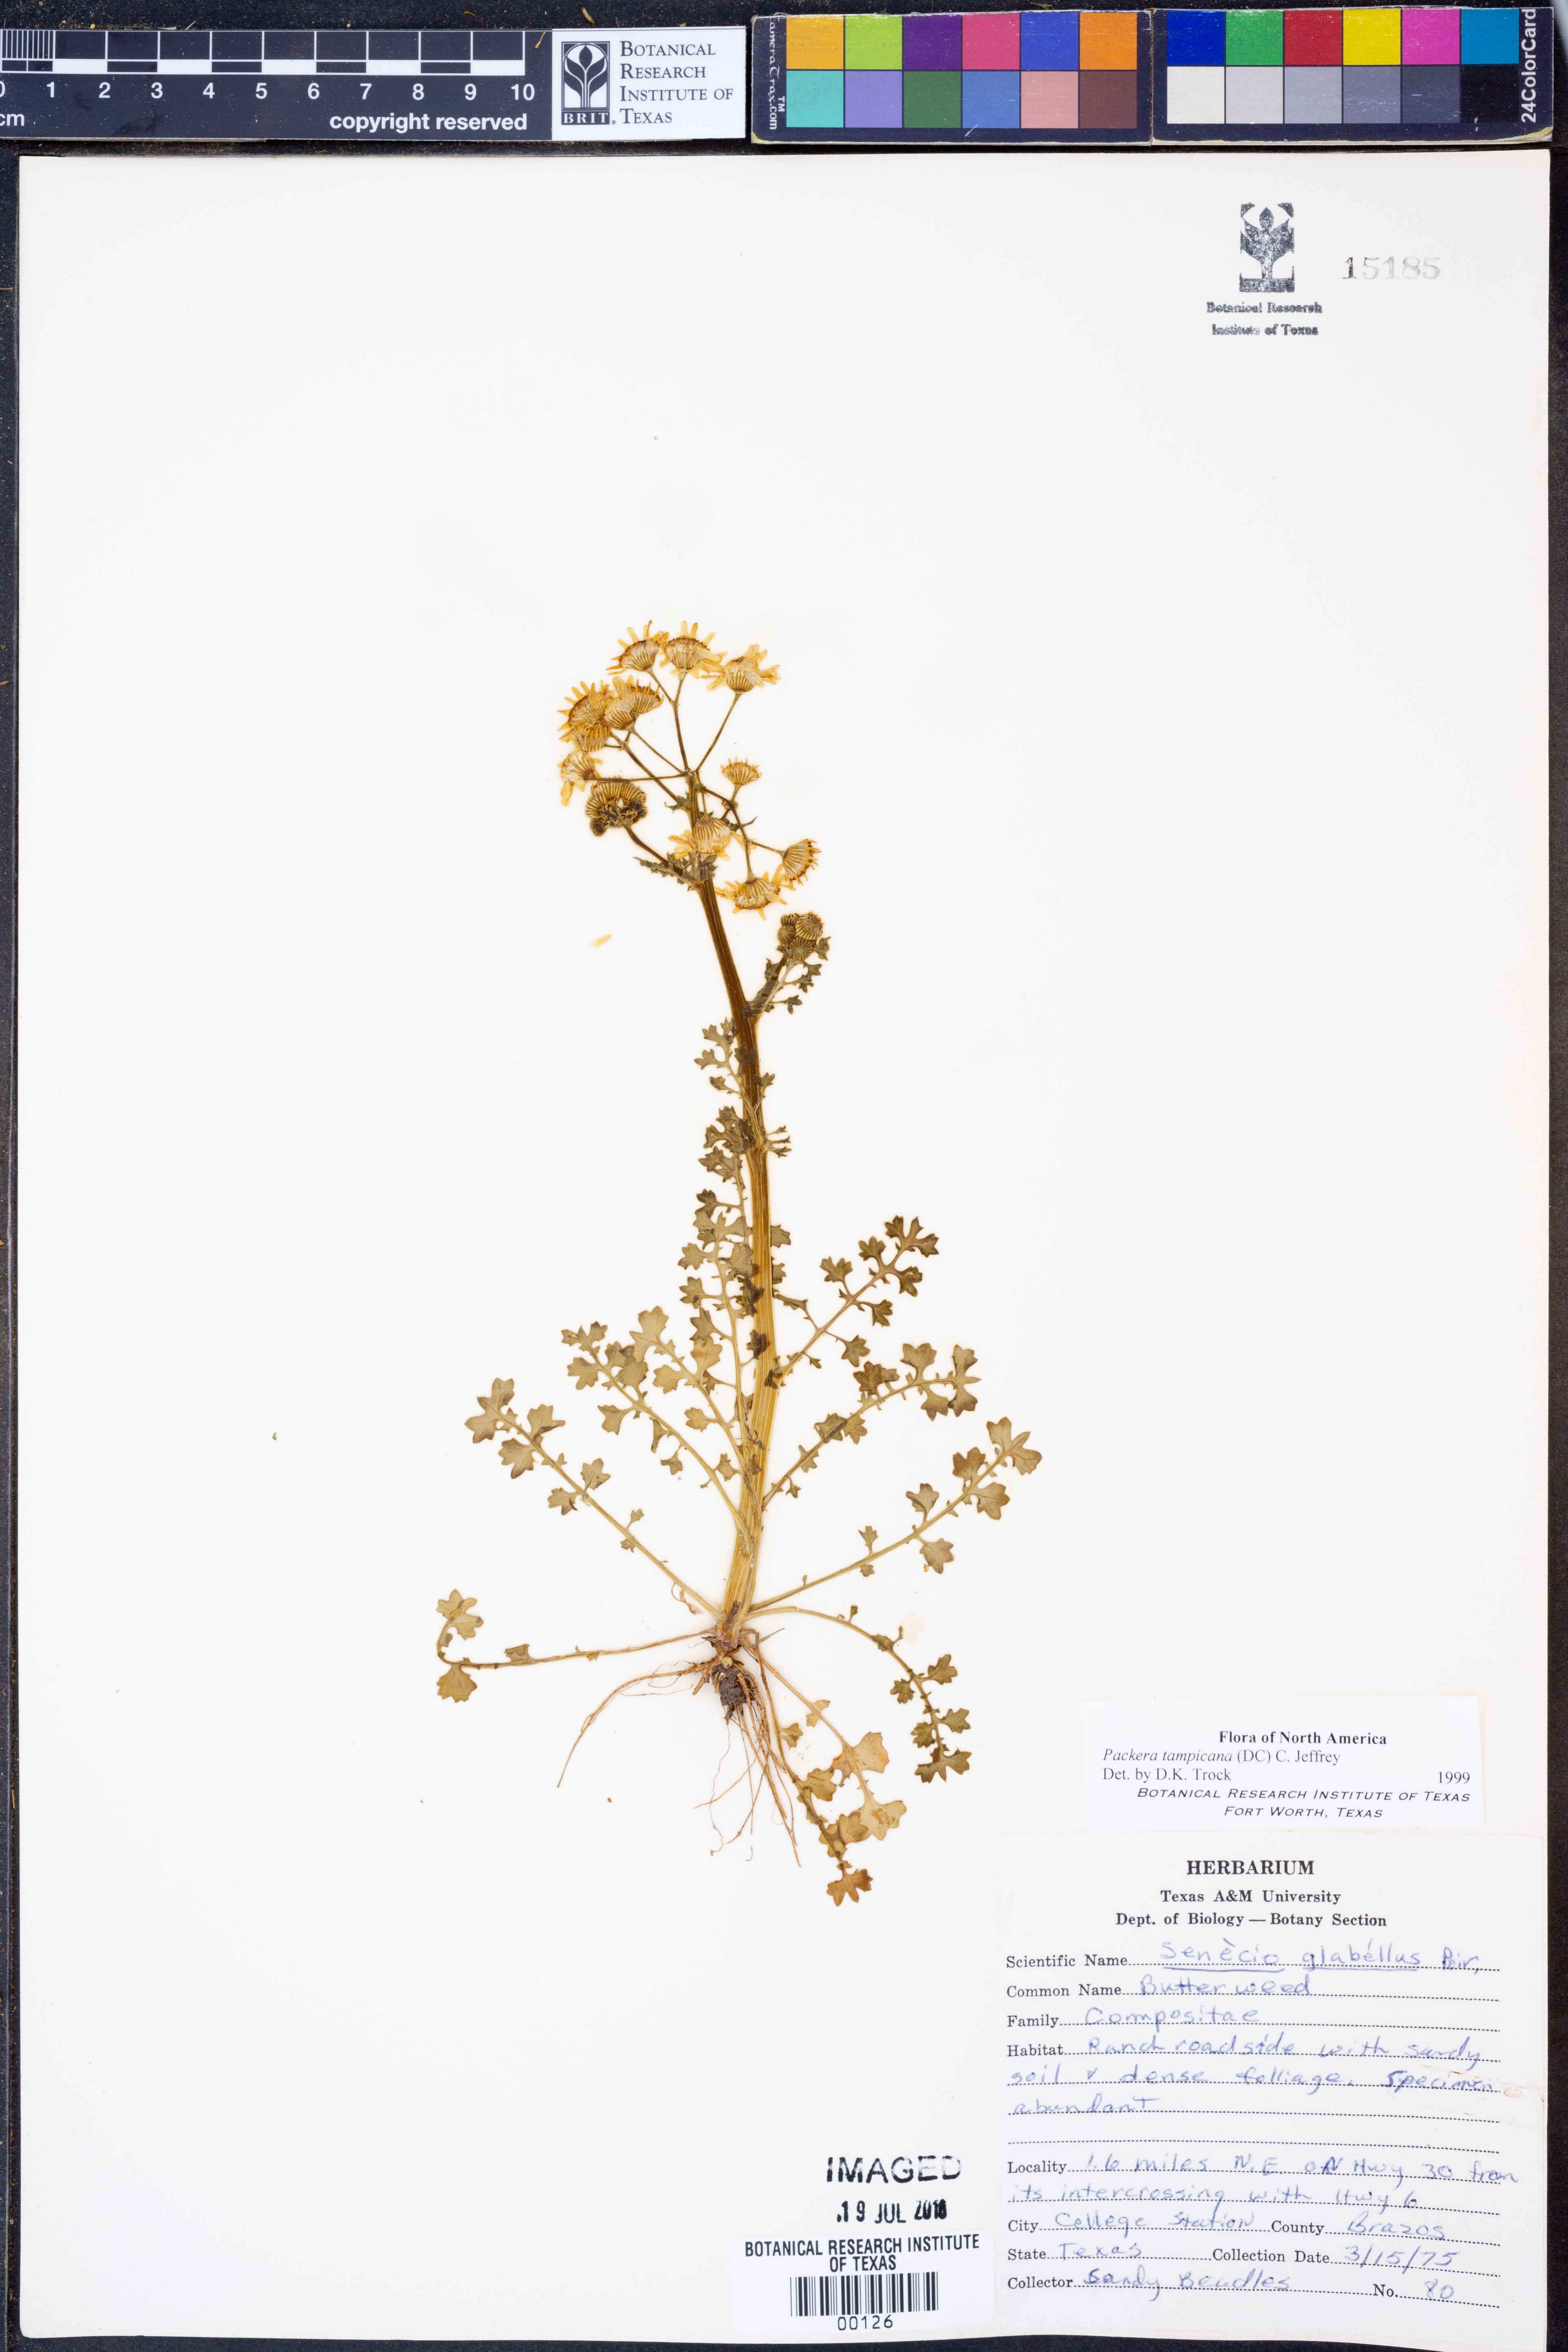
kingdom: Plantae
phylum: Tracheophyta
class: Magnoliopsida
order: Asterales
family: Asteraceae
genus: Packera
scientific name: Packera tampicana
